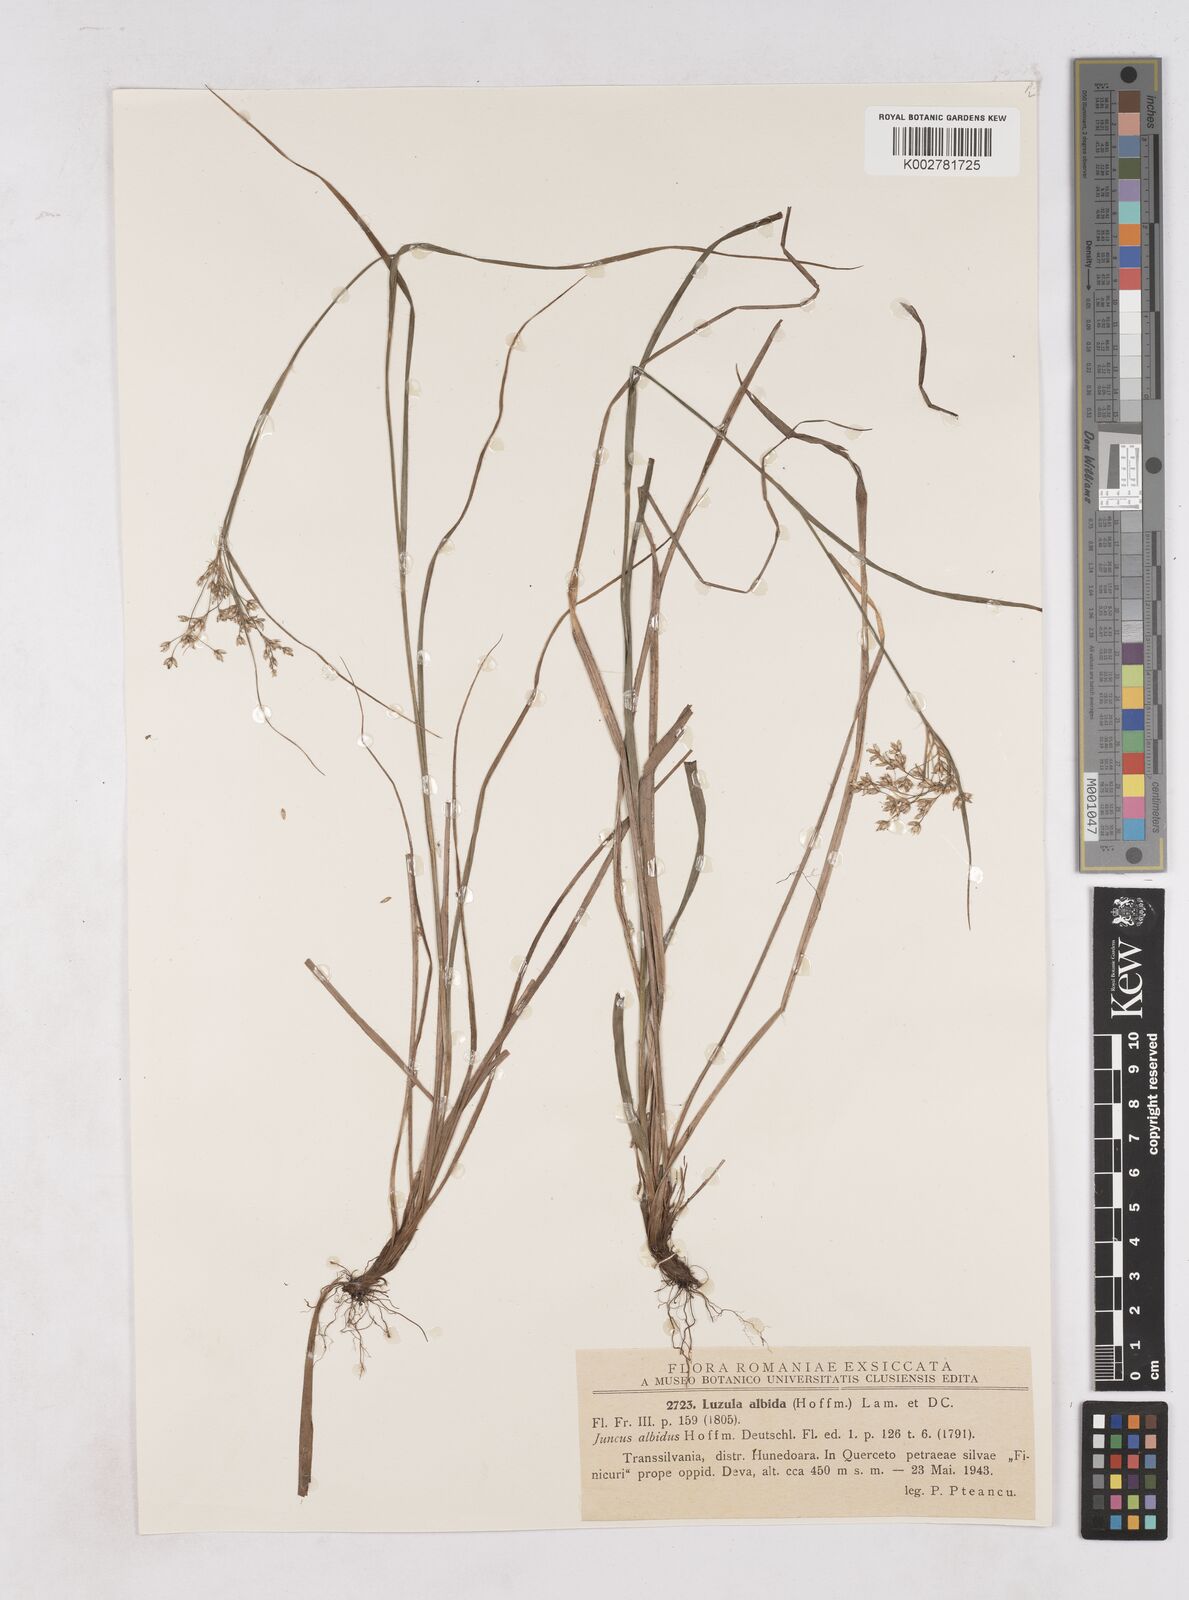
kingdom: Plantae
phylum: Tracheophyta
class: Liliopsida
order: Poales
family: Juncaceae
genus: Luzula
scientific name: Luzula luzuloides
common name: White wood-rush
